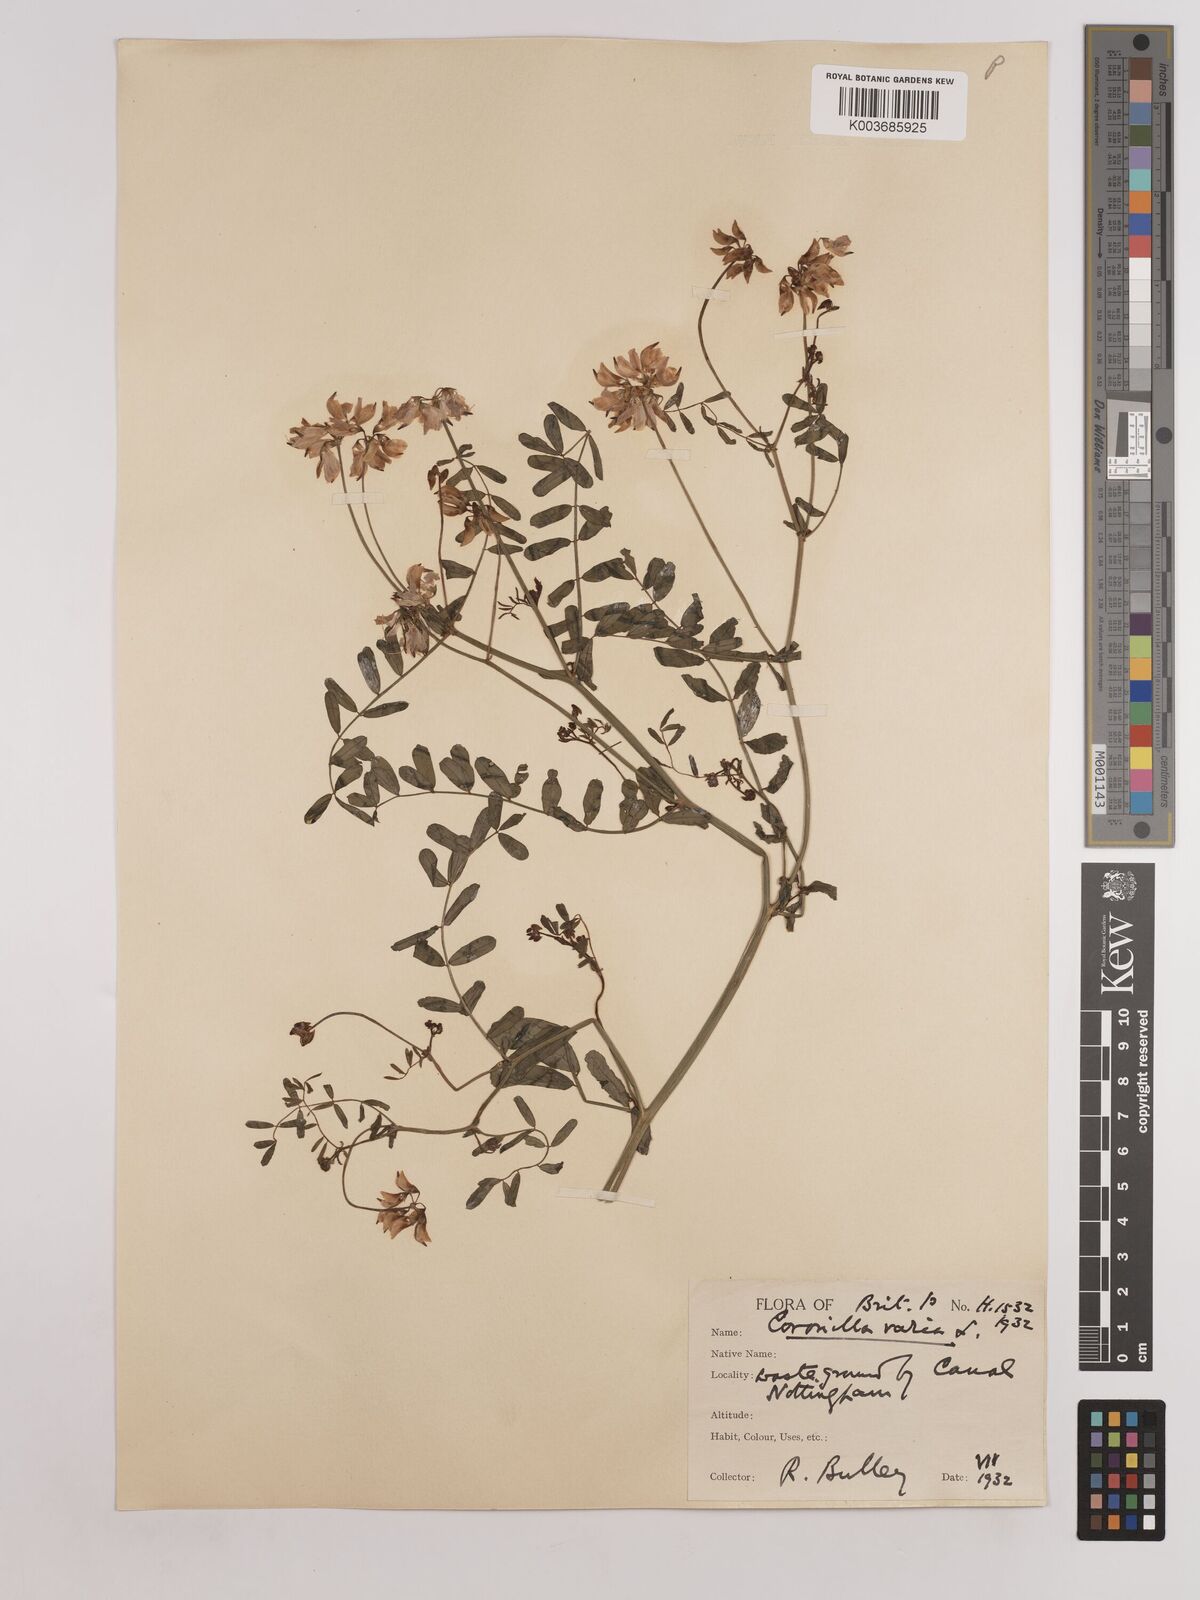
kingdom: Plantae
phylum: Tracheophyta
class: Magnoliopsida
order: Fabales
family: Fabaceae
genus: Coronilla
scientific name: Coronilla varia
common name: Crownvetch
